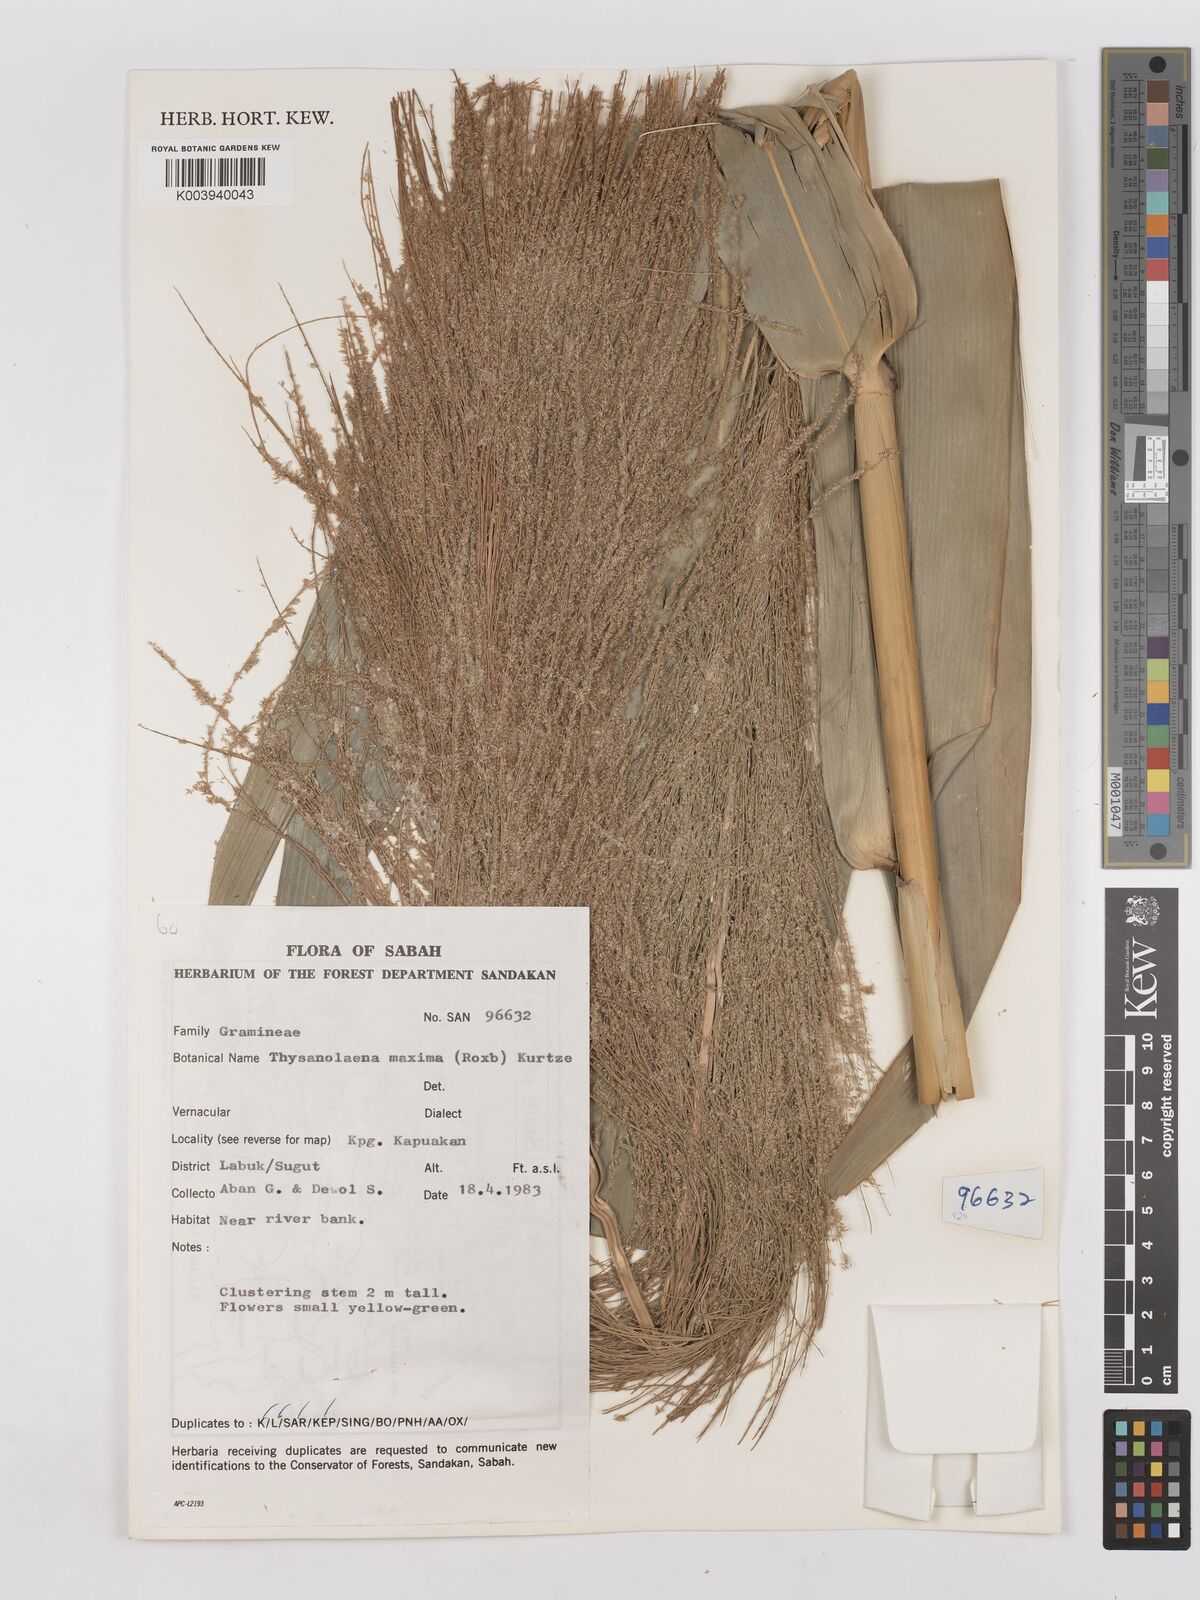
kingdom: Plantae
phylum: Tracheophyta
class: Liliopsida
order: Poales
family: Poaceae
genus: Thysanolaena
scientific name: Thysanolaena latifolia
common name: Tiger grass
